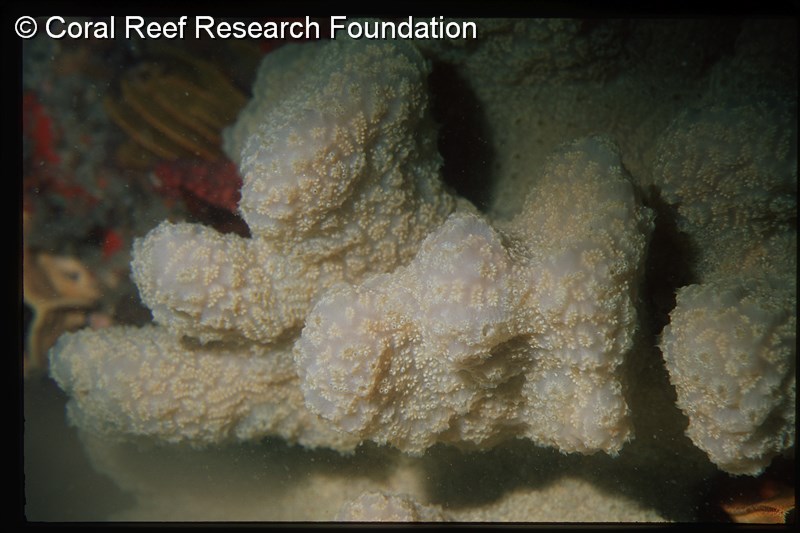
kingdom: Animalia
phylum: Chordata
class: Ascidiacea
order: Aplousobranchia
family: Polyclinidae
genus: Aplidium
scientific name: Aplidium
